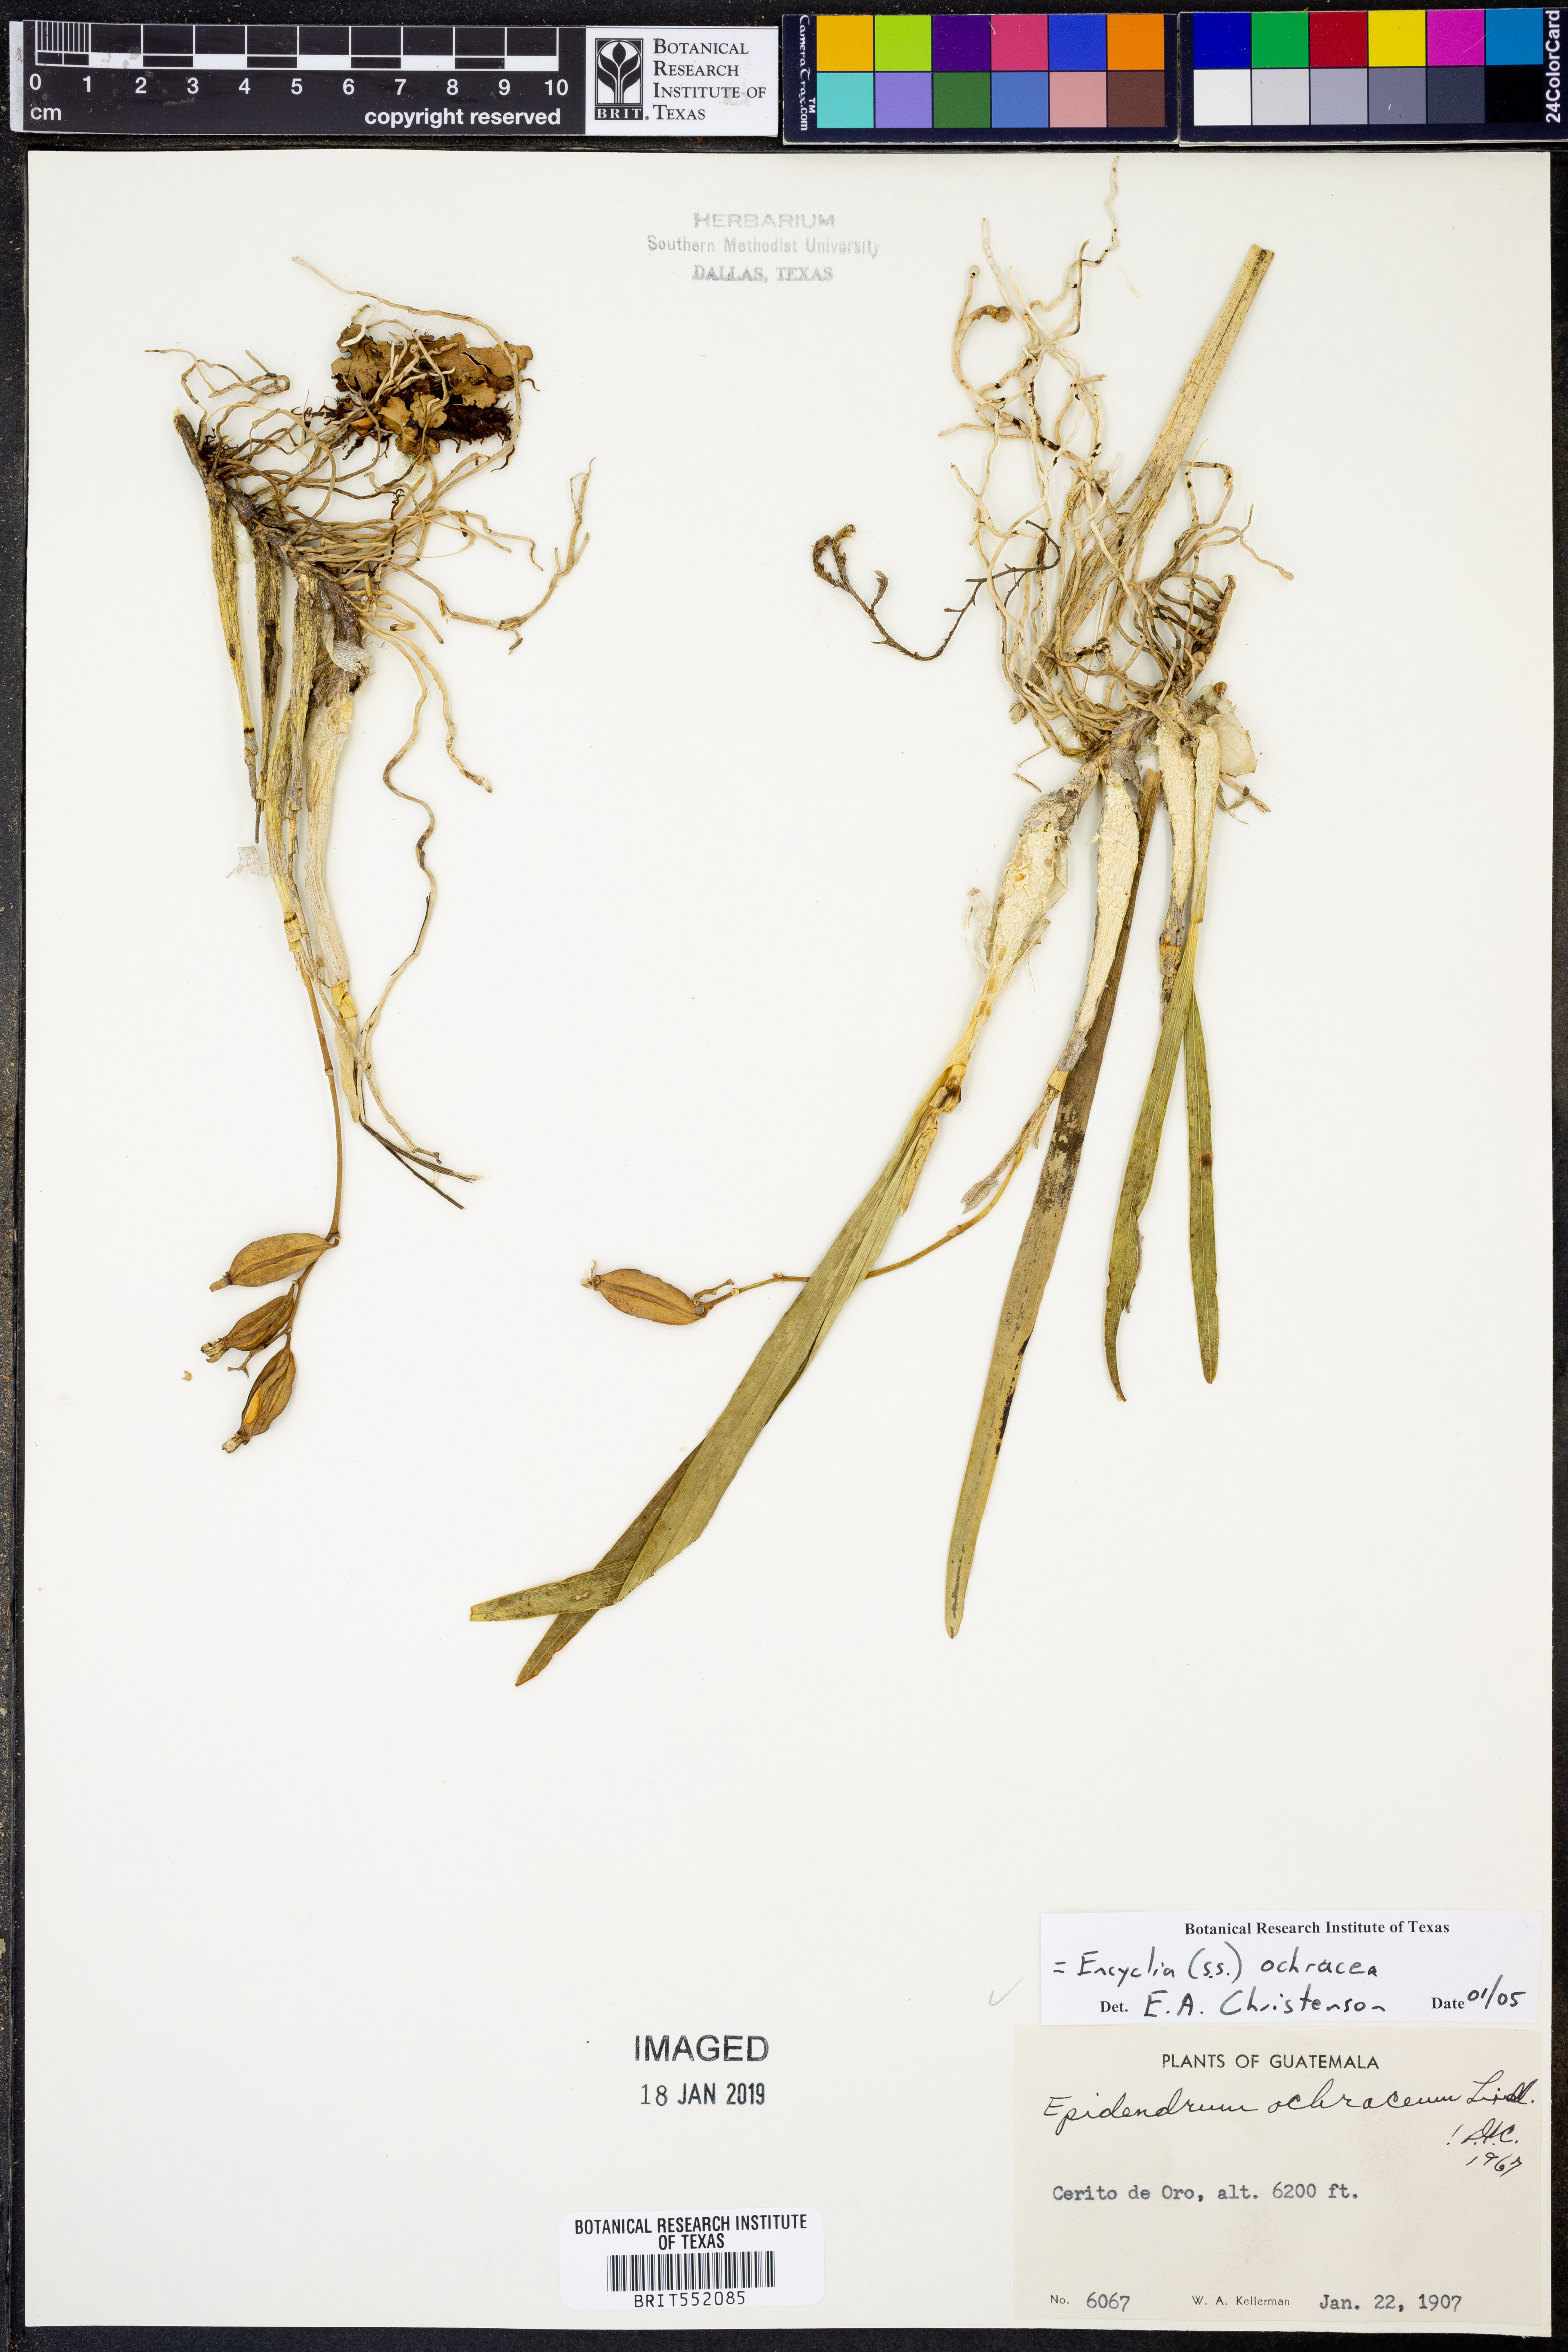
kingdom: Plantae
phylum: Tracheophyta
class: Liliopsida
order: Asparagales
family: Orchidaceae
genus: Prosthechea
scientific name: Prosthechea ochracea
